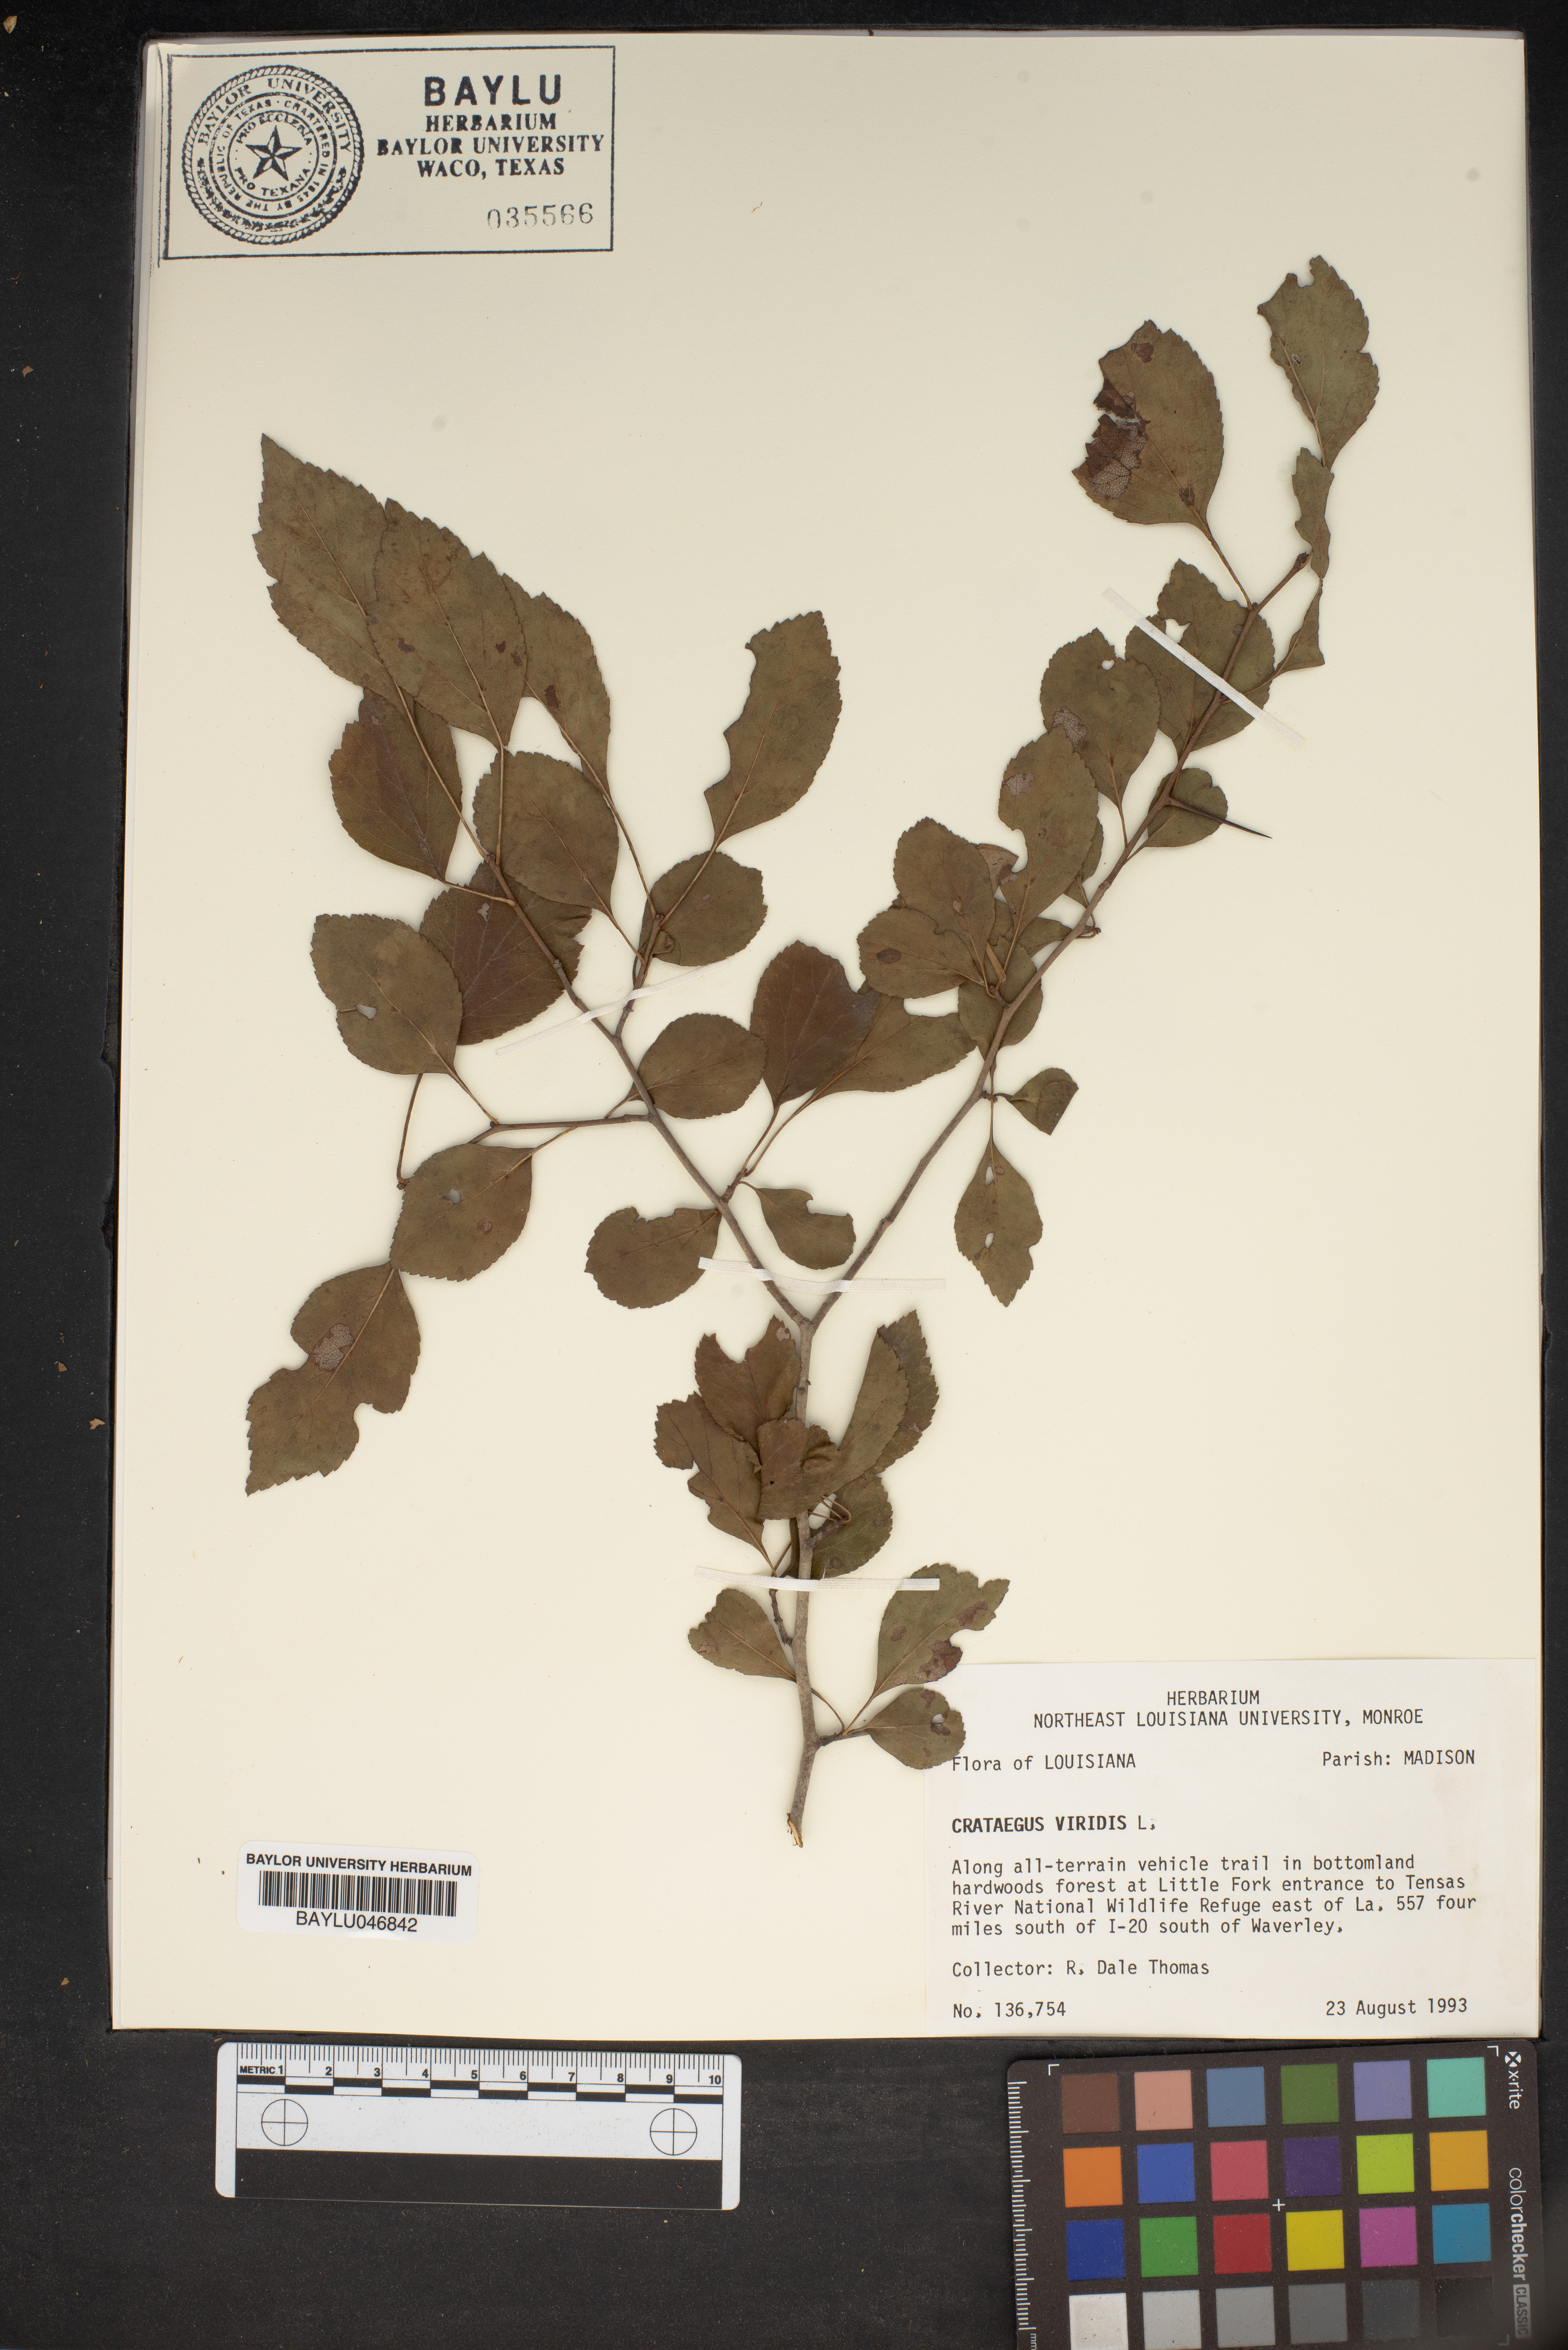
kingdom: Plantae
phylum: Tracheophyta
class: Magnoliopsida
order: Rosales
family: Rosaceae
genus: Crataegus
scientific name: Crataegus viridis
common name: Southernthorn
